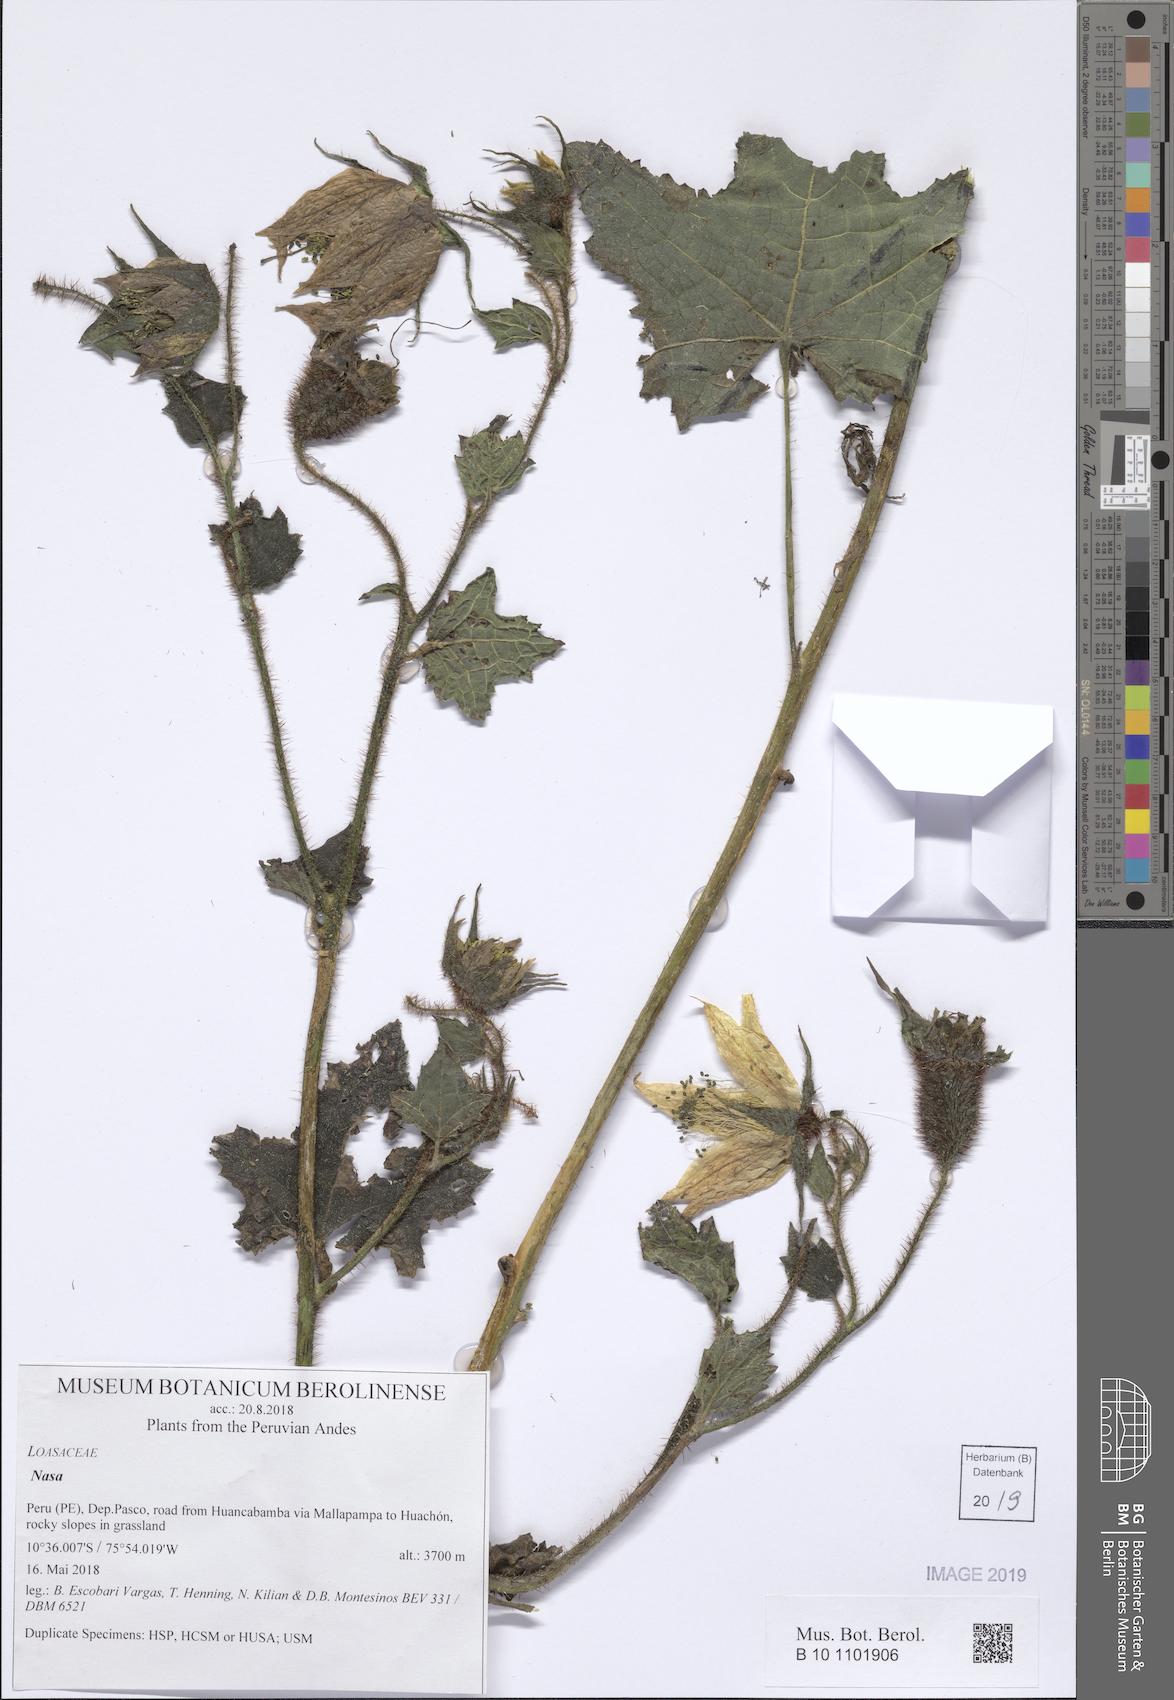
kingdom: Plantae
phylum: Tracheophyta
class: Magnoliopsida
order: Cornales
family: Loasaceae
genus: Nasa
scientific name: Nasa tulipadiaboli
